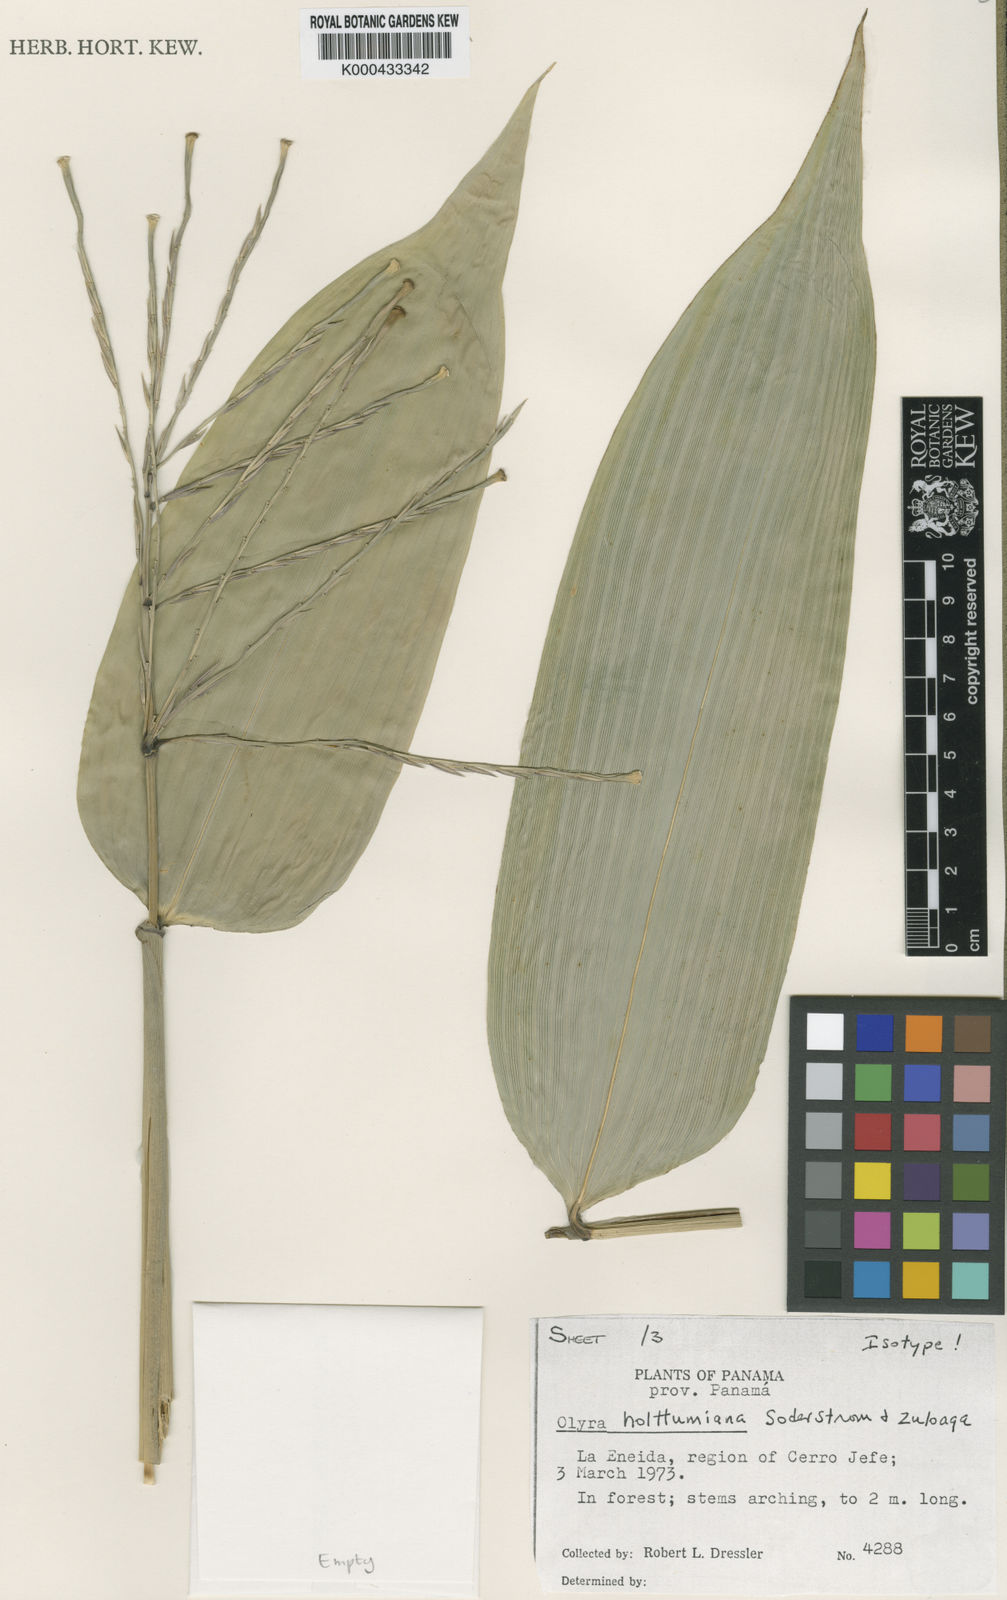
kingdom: Plantae
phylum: Tracheophyta
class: Liliopsida
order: Poales
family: Poaceae
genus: Olyra
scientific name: Olyra holttumiana
